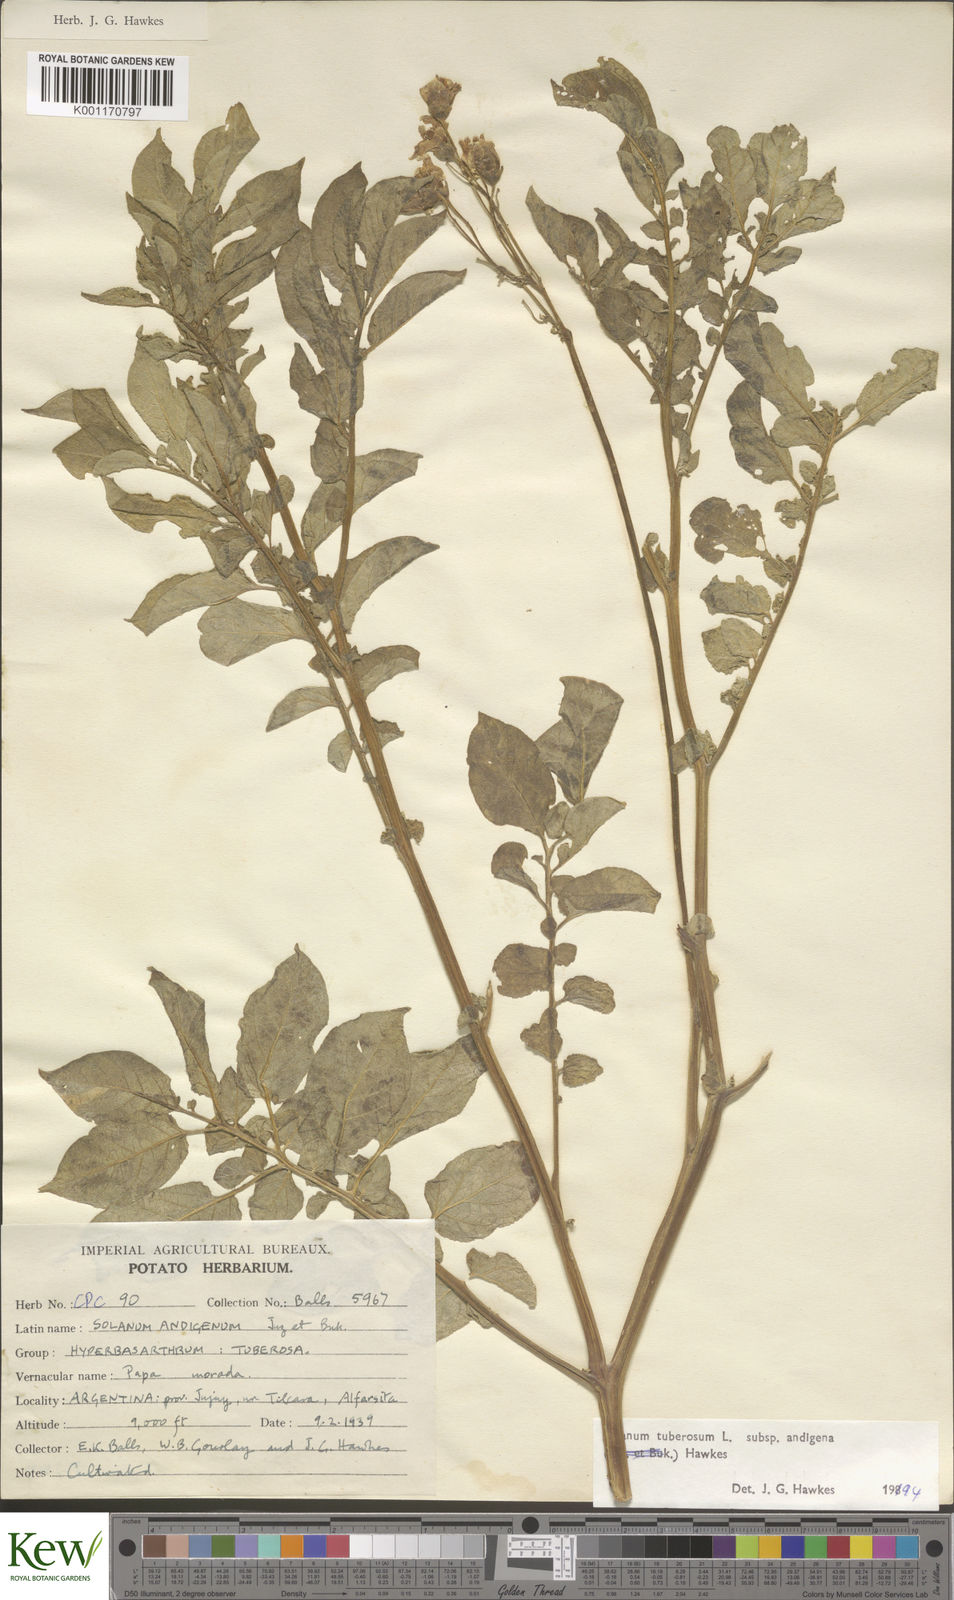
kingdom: Plantae
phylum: Tracheophyta
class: Magnoliopsida
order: Solanales
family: Solanaceae
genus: Solanum
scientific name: Solanum tuberosum
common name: Potato
